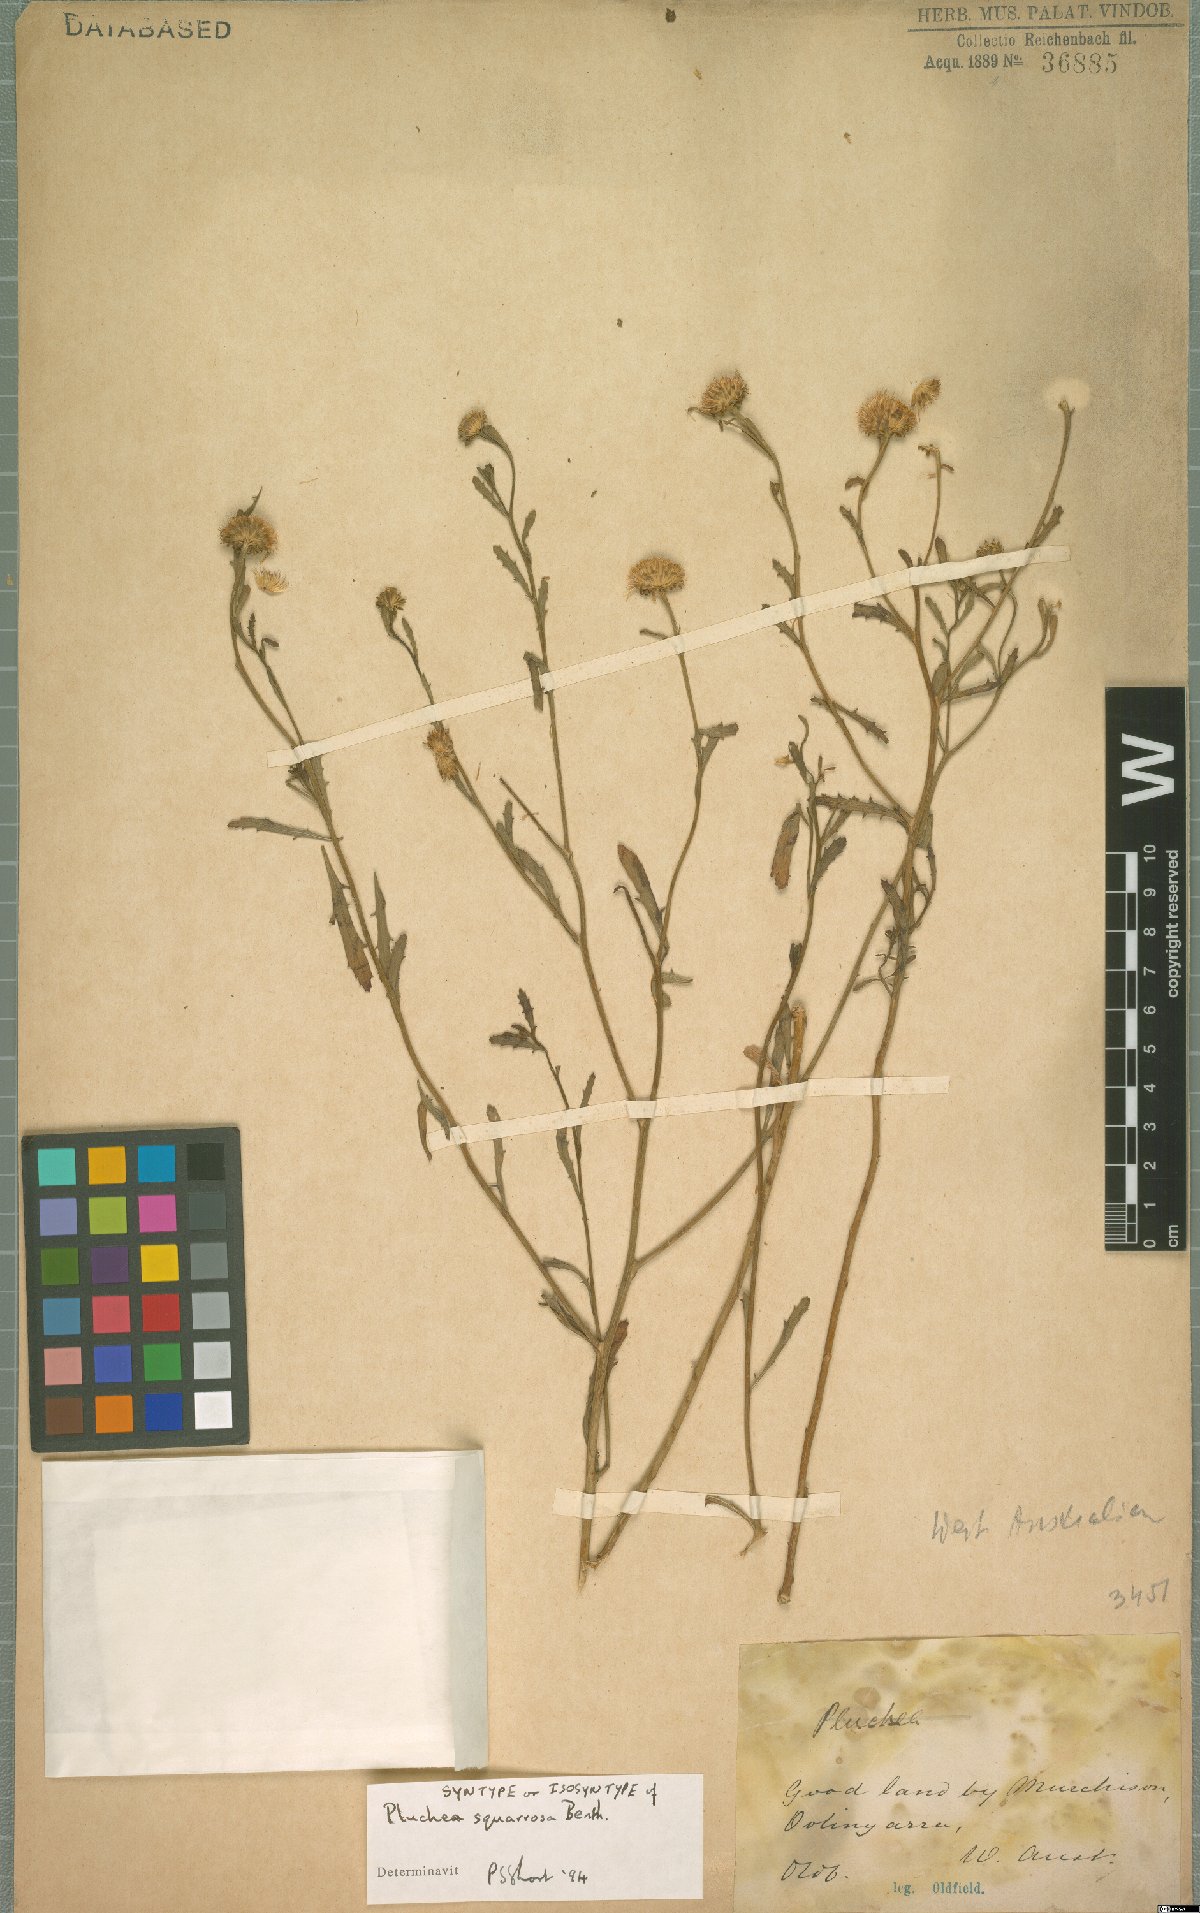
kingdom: Plantae
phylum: Tracheophyta
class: Magnoliopsida
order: Asterales
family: Asteraceae
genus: Pluchea
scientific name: Pluchea dentex
